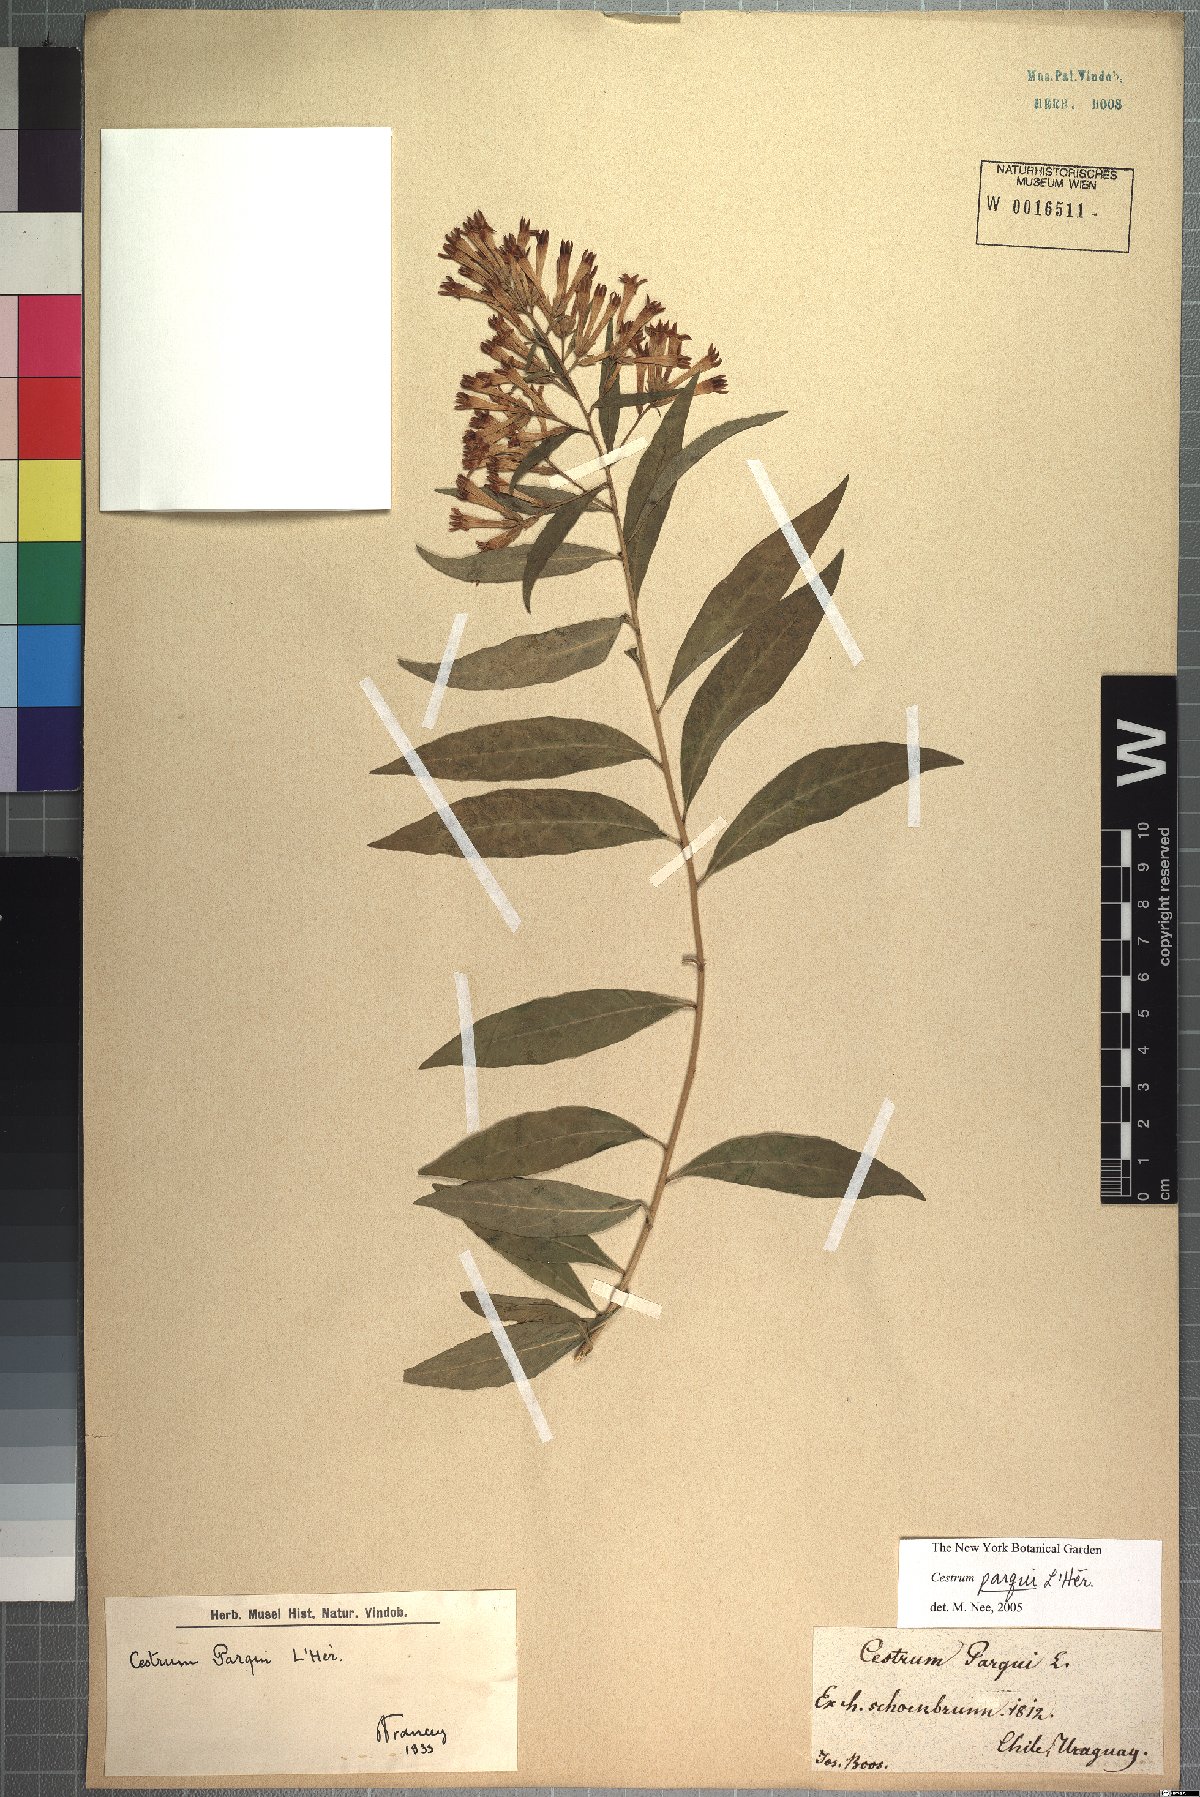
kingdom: Plantae
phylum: Tracheophyta
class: Magnoliopsida
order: Solanales
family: Solanaceae
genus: Cestrum
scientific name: Cestrum thyrsoideum
